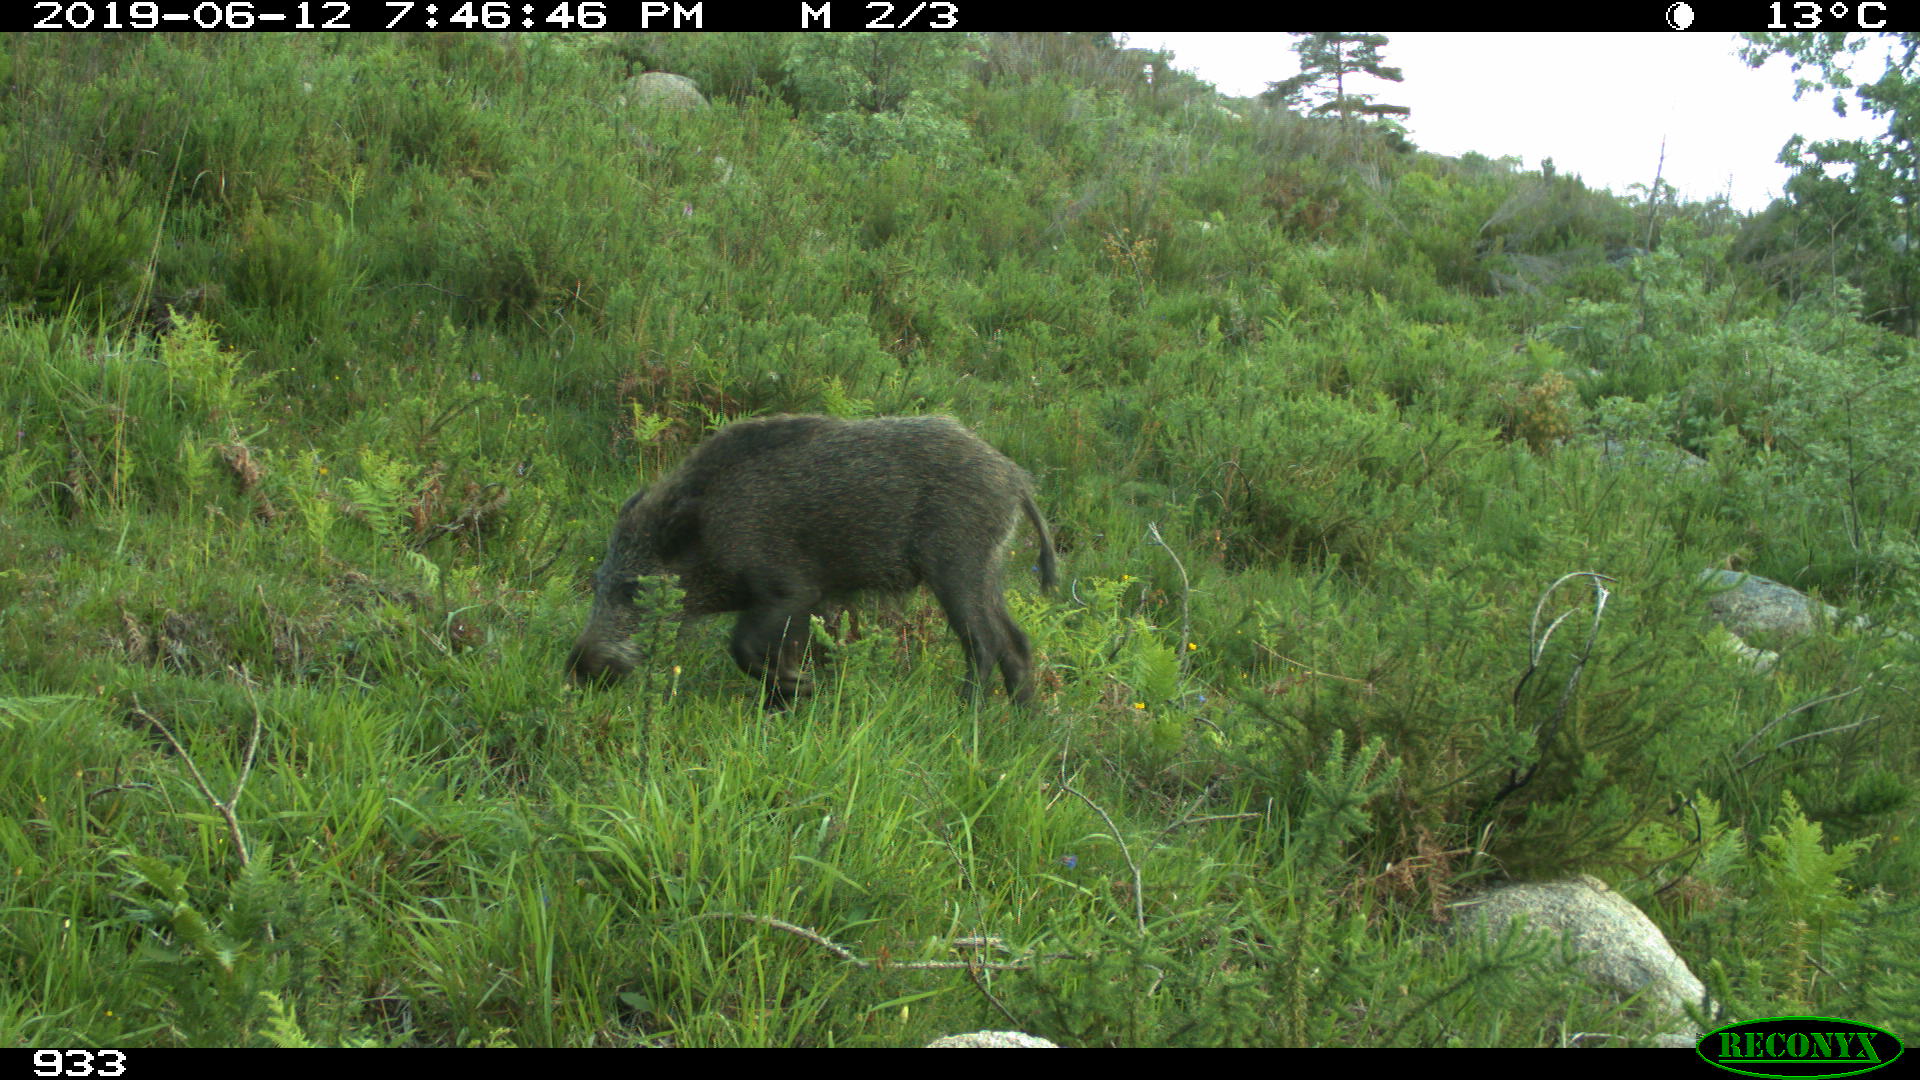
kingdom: Animalia
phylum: Chordata
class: Mammalia
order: Artiodactyla
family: Suidae
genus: Sus
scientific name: Sus scrofa
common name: Wild boar
